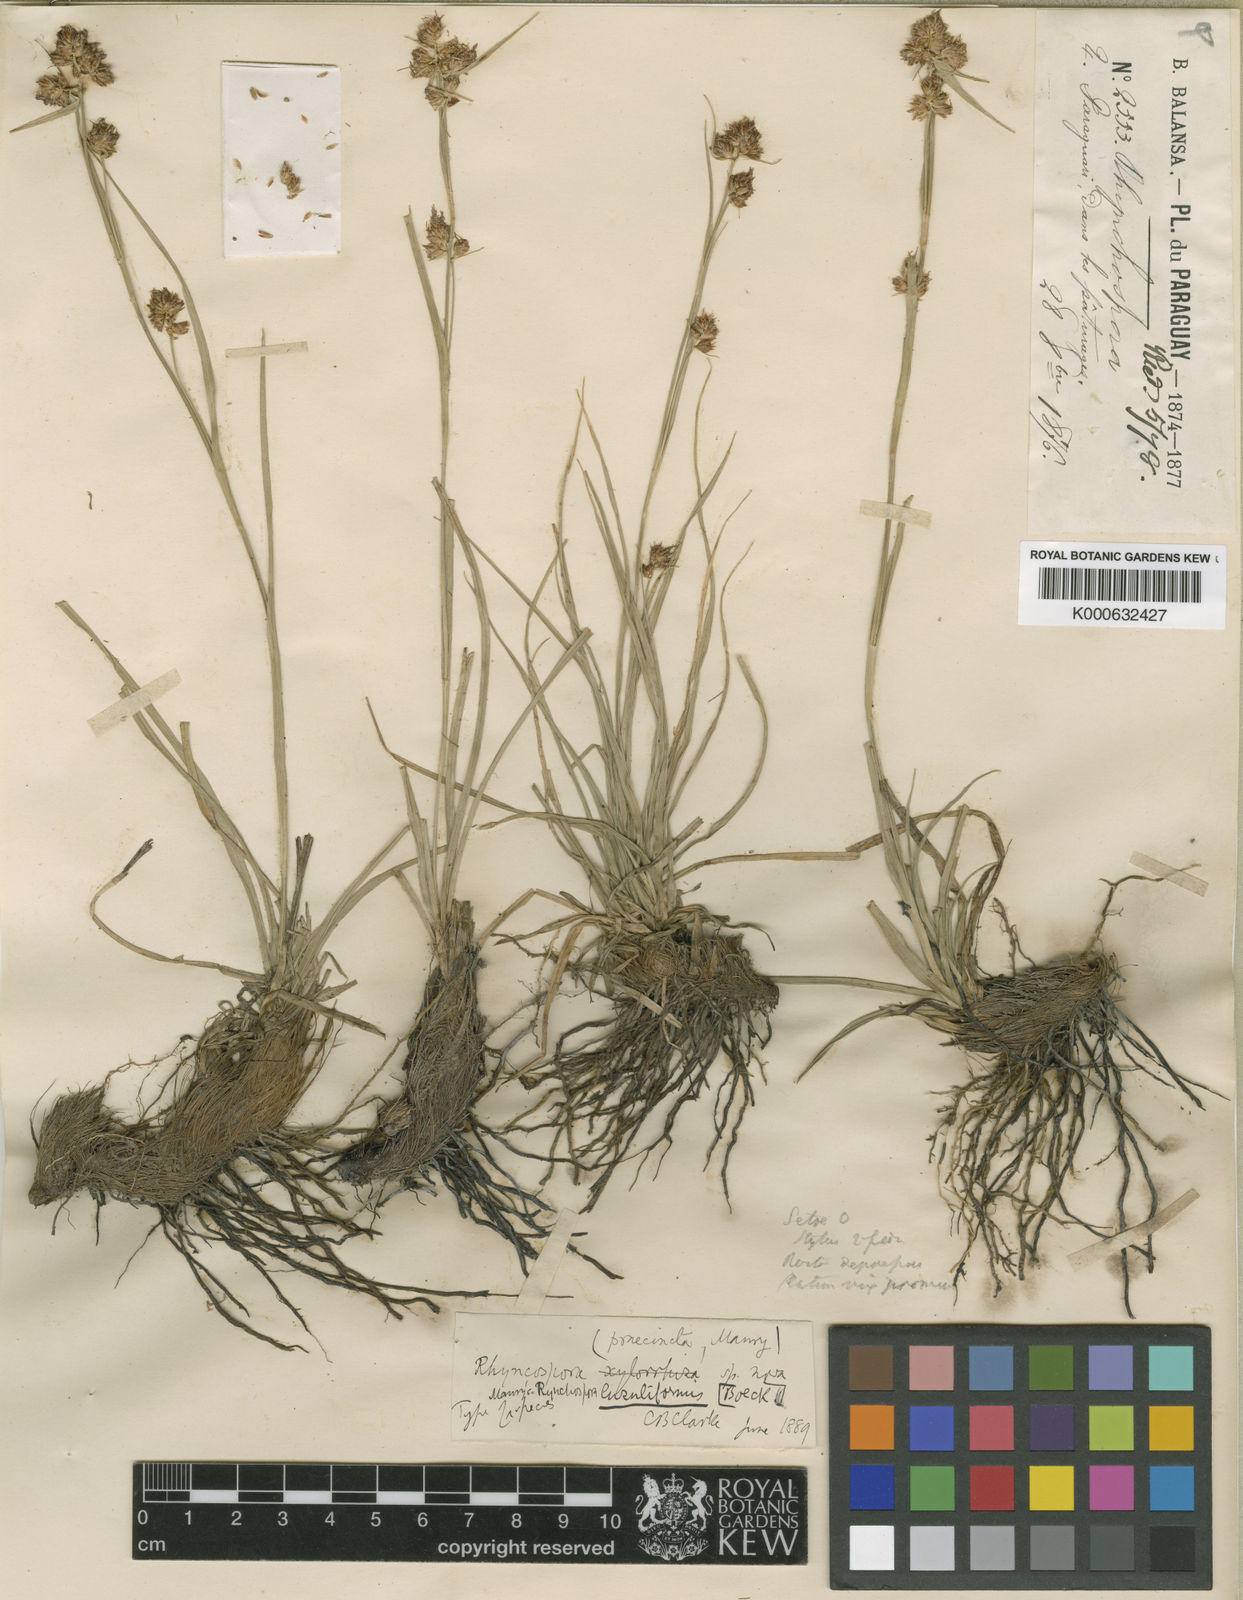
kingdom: Plantae
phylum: Tracheophyta
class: Liliopsida
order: Poales
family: Cyperaceae
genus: Rhynchospora
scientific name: Rhynchospora contracta
